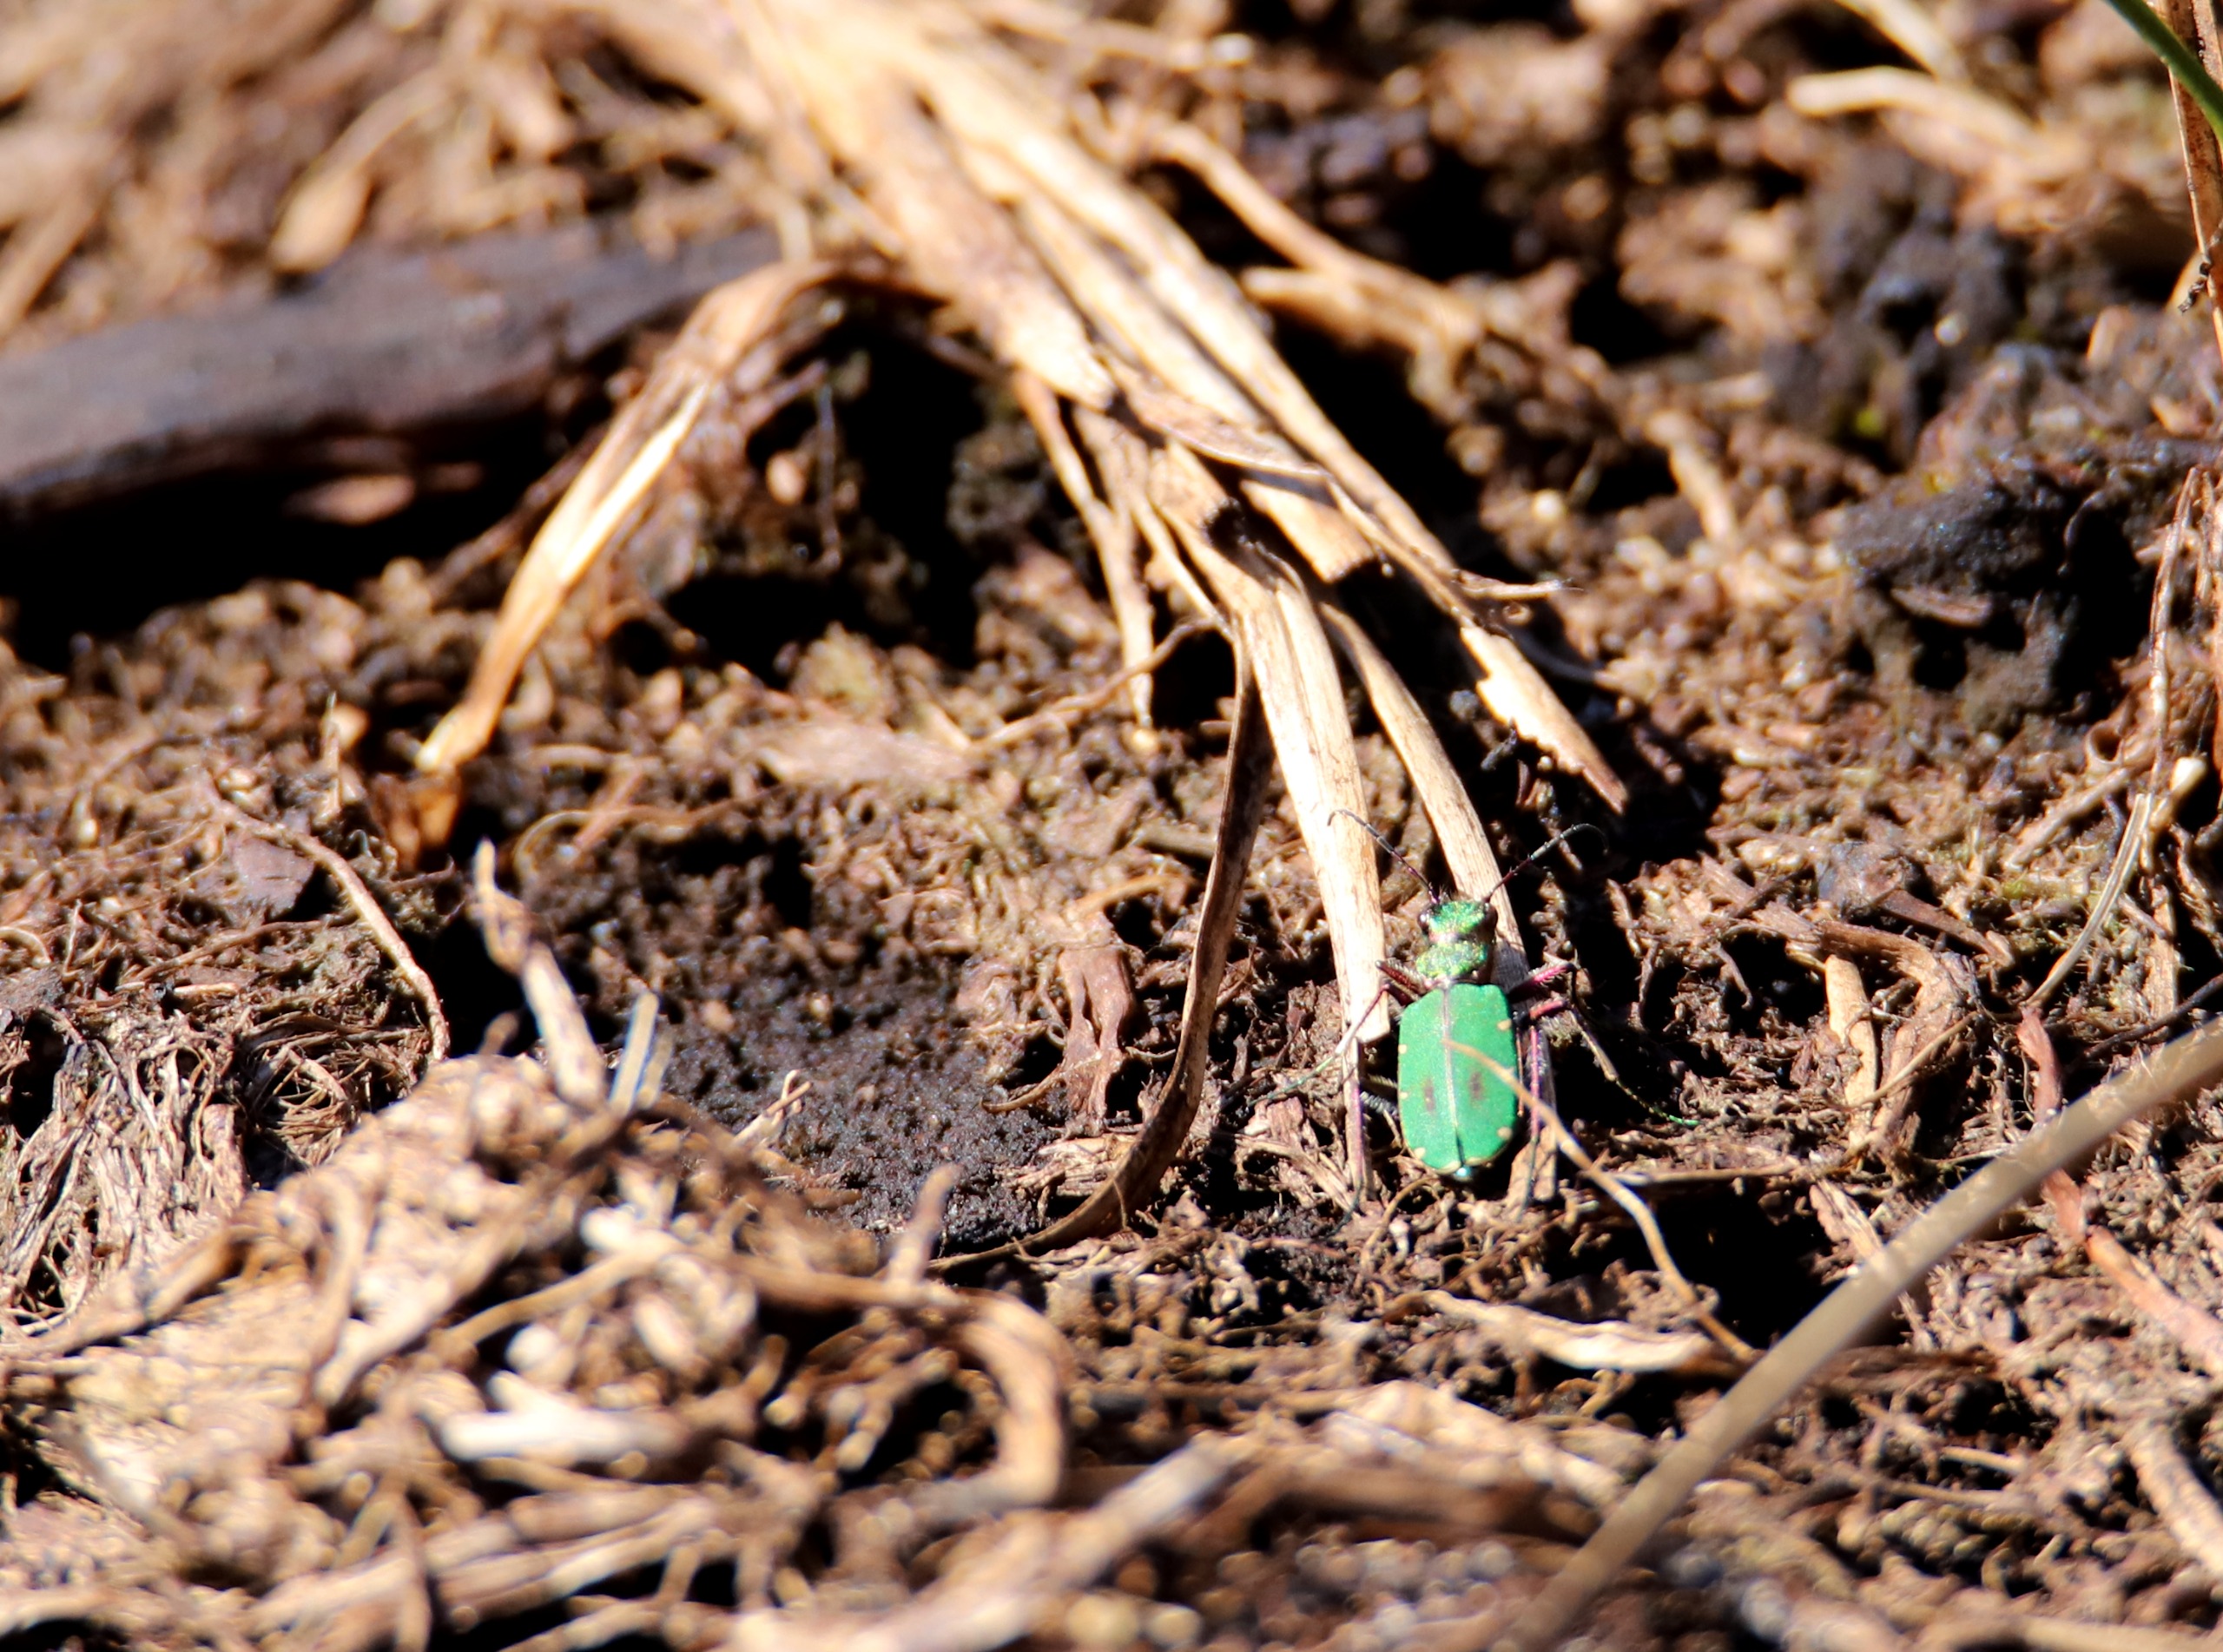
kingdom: Animalia
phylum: Arthropoda
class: Insecta
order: Coleoptera
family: Carabidae
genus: Cicindela
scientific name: Cicindela campestris
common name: Grøn sandspringer
